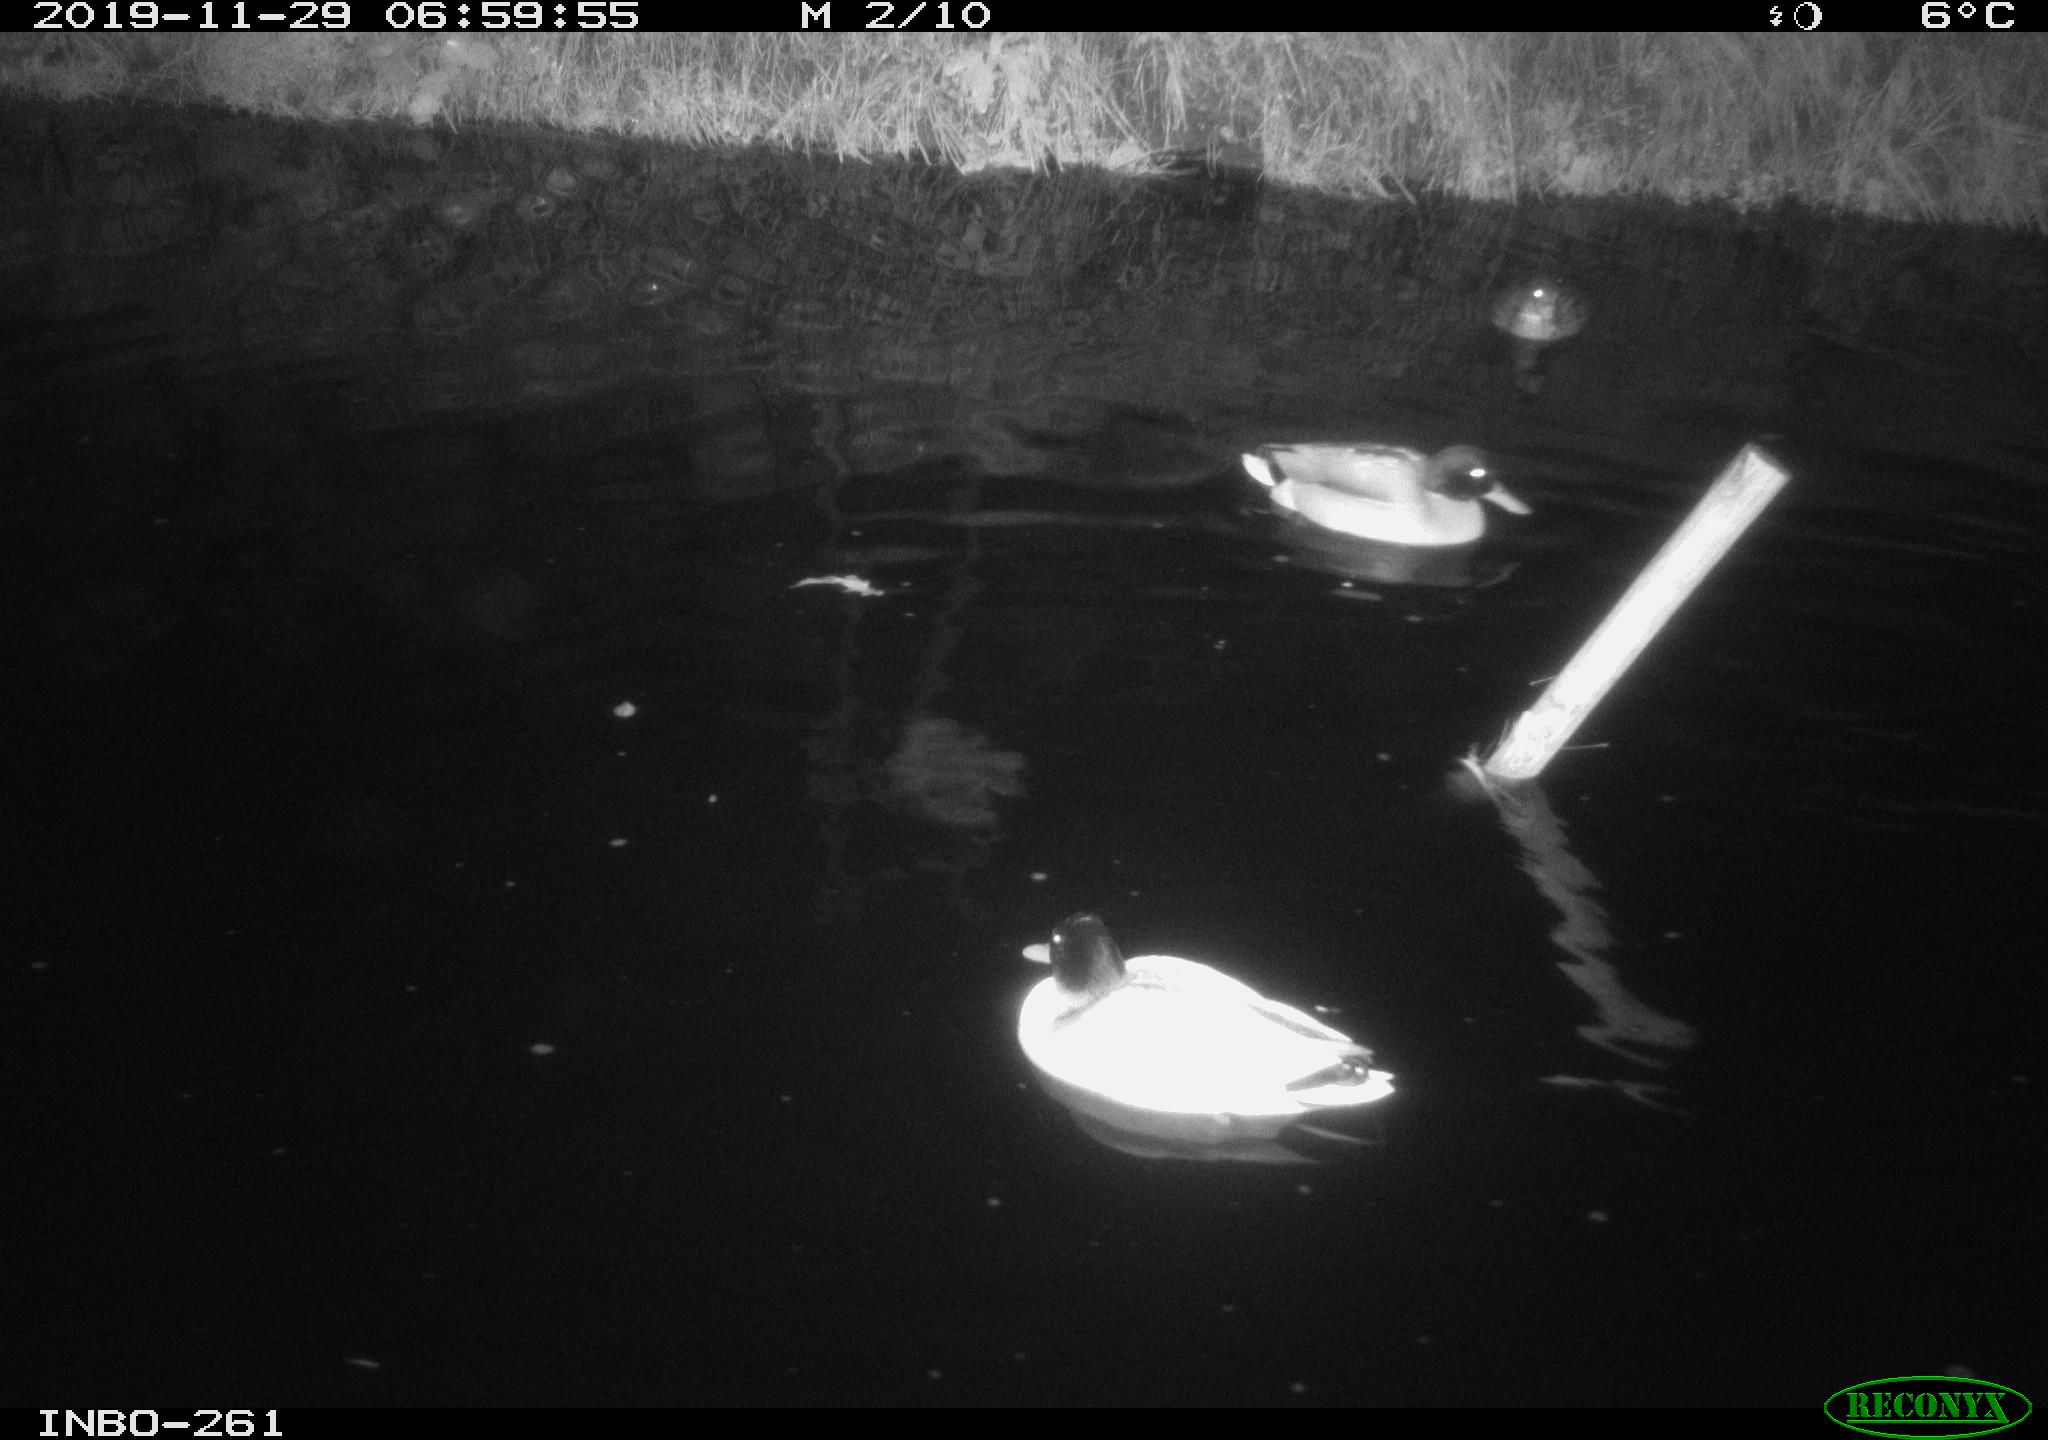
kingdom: Animalia
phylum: Chordata
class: Aves
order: Anseriformes
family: Anatidae
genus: Anas
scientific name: Anas platyrhynchos
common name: Mallard
